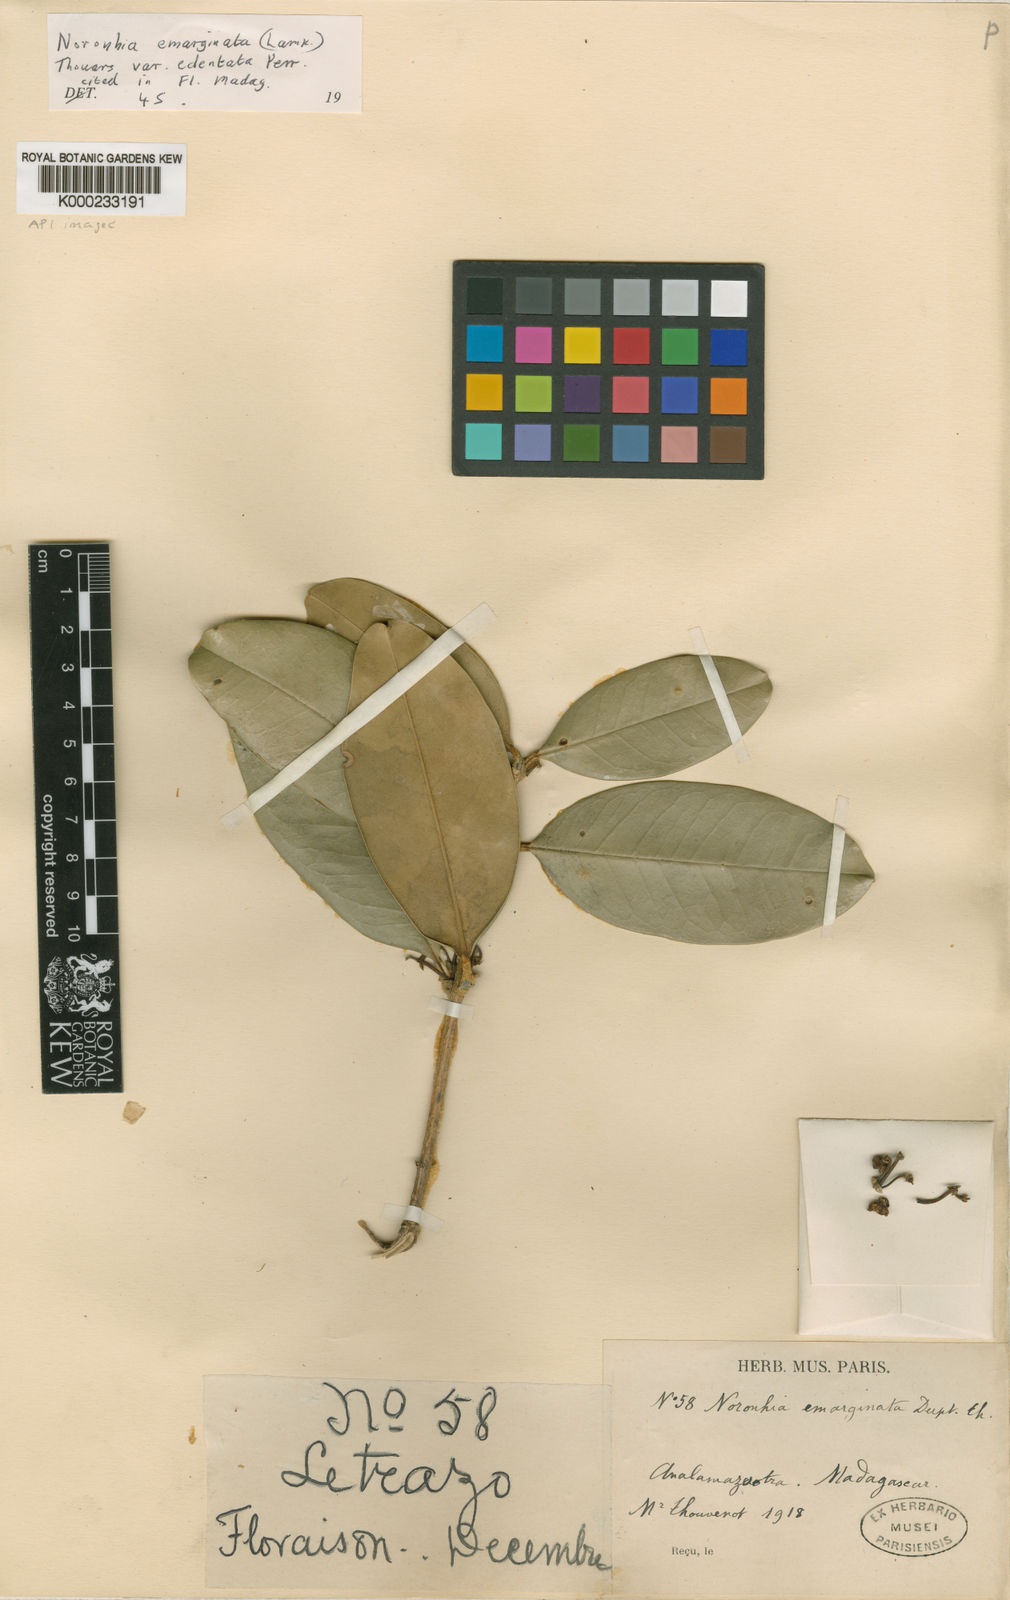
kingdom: Plantae
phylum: Tracheophyta
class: Magnoliopsida
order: Lamiales
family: Oleaceae
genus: Noronhia
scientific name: Noronhia edentata
